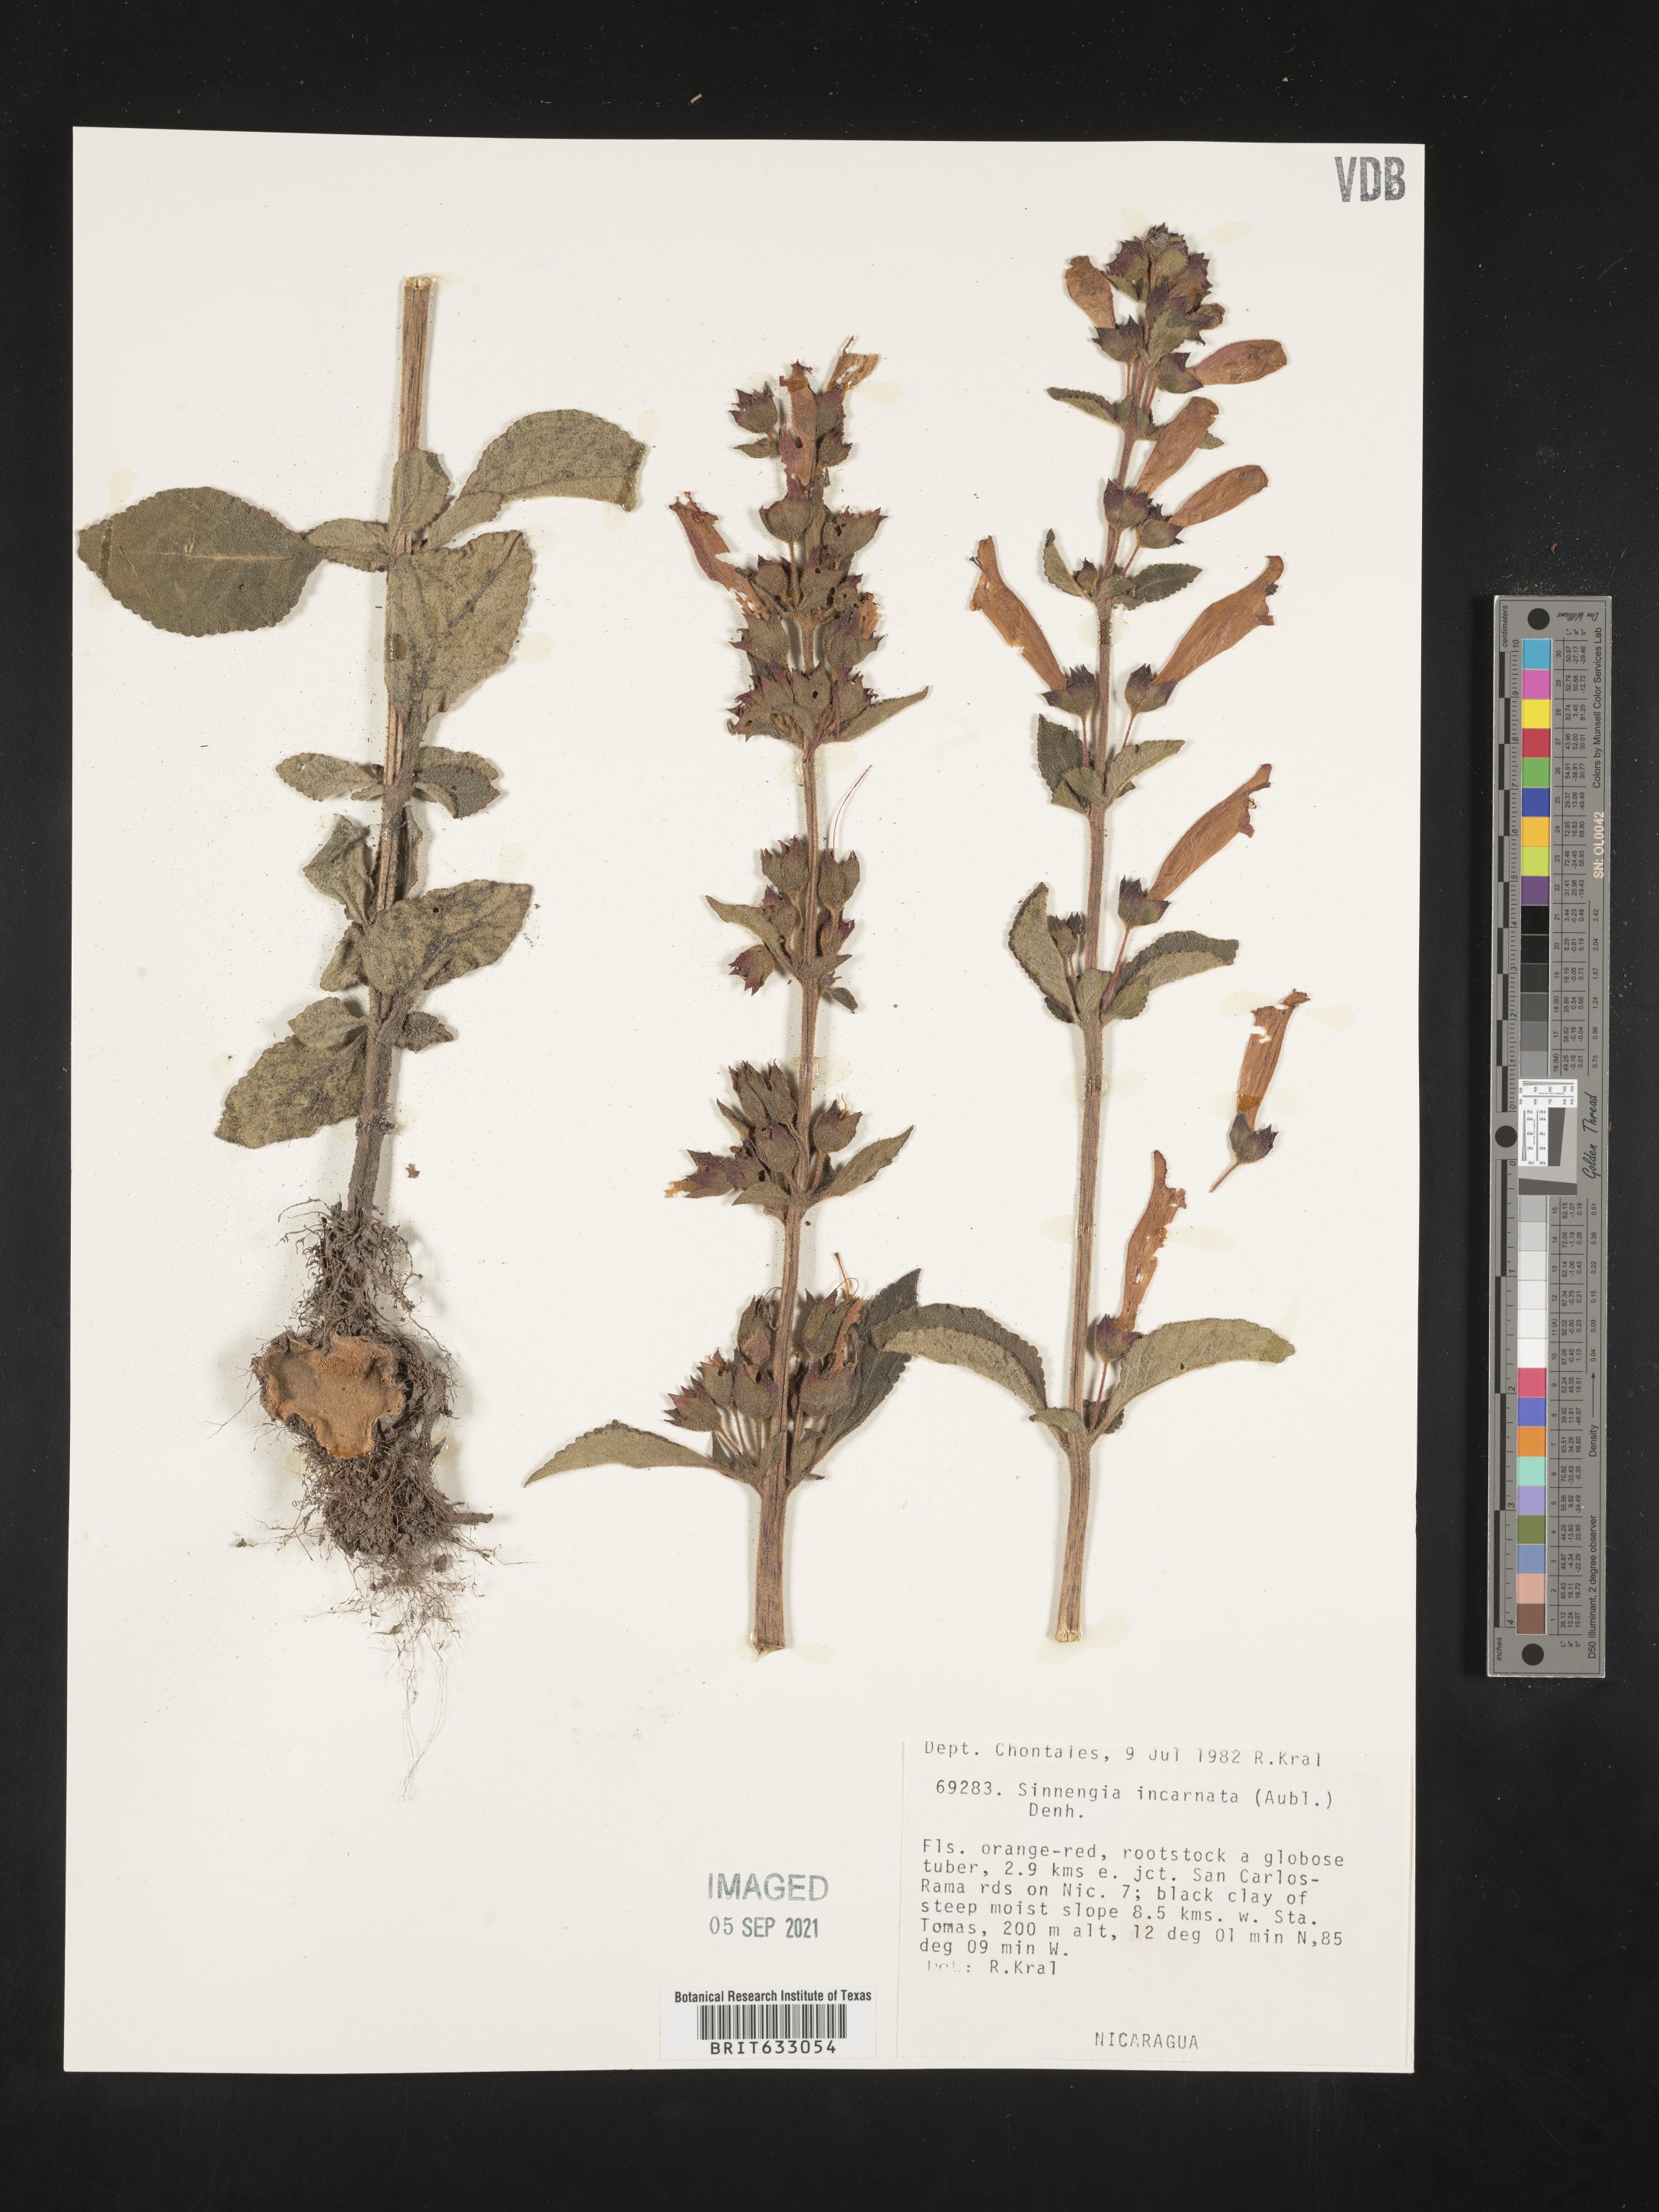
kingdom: Plantae
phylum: Tracheophyta
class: Magnoliopsida
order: Lamiales
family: Gesneriaceae
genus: Sinningia
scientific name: Sinningia
